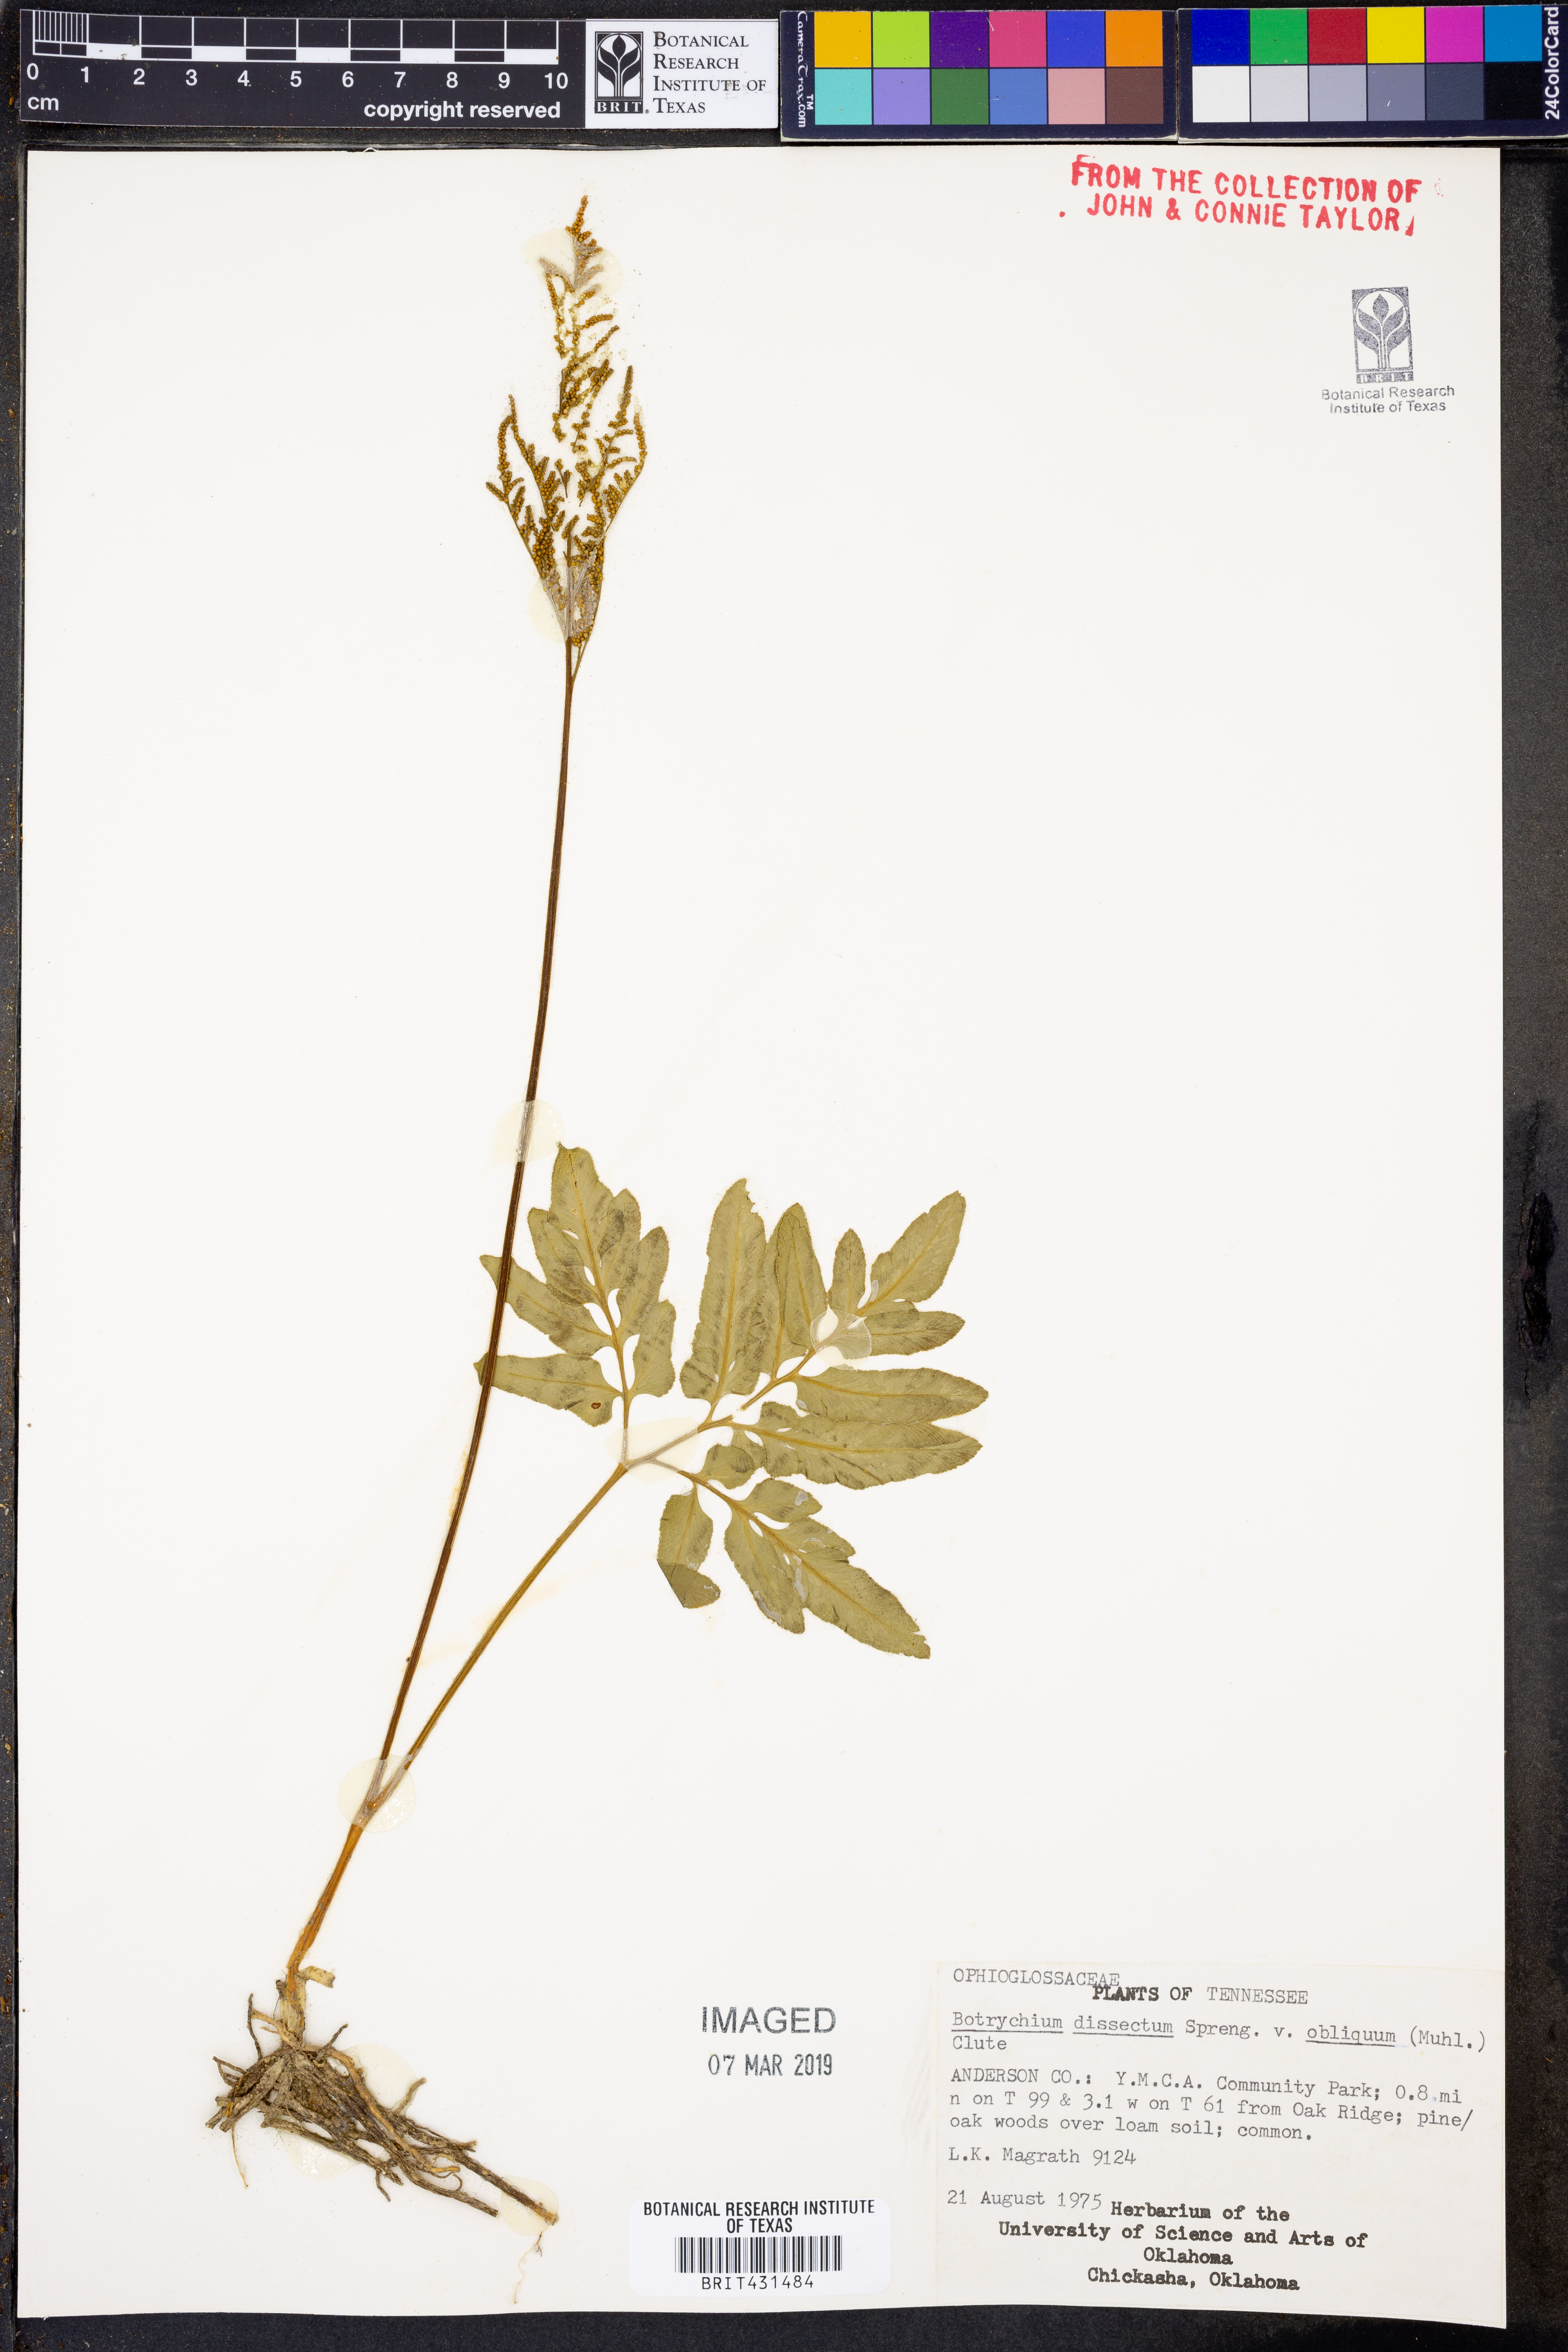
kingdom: Plantae
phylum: Tracheophyta
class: Polypodiopsida
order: Ophioglossales
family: Ophioglossaceae
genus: Sceptridium
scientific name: Sceptridium dissectum
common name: Cut-leaved grapefern
